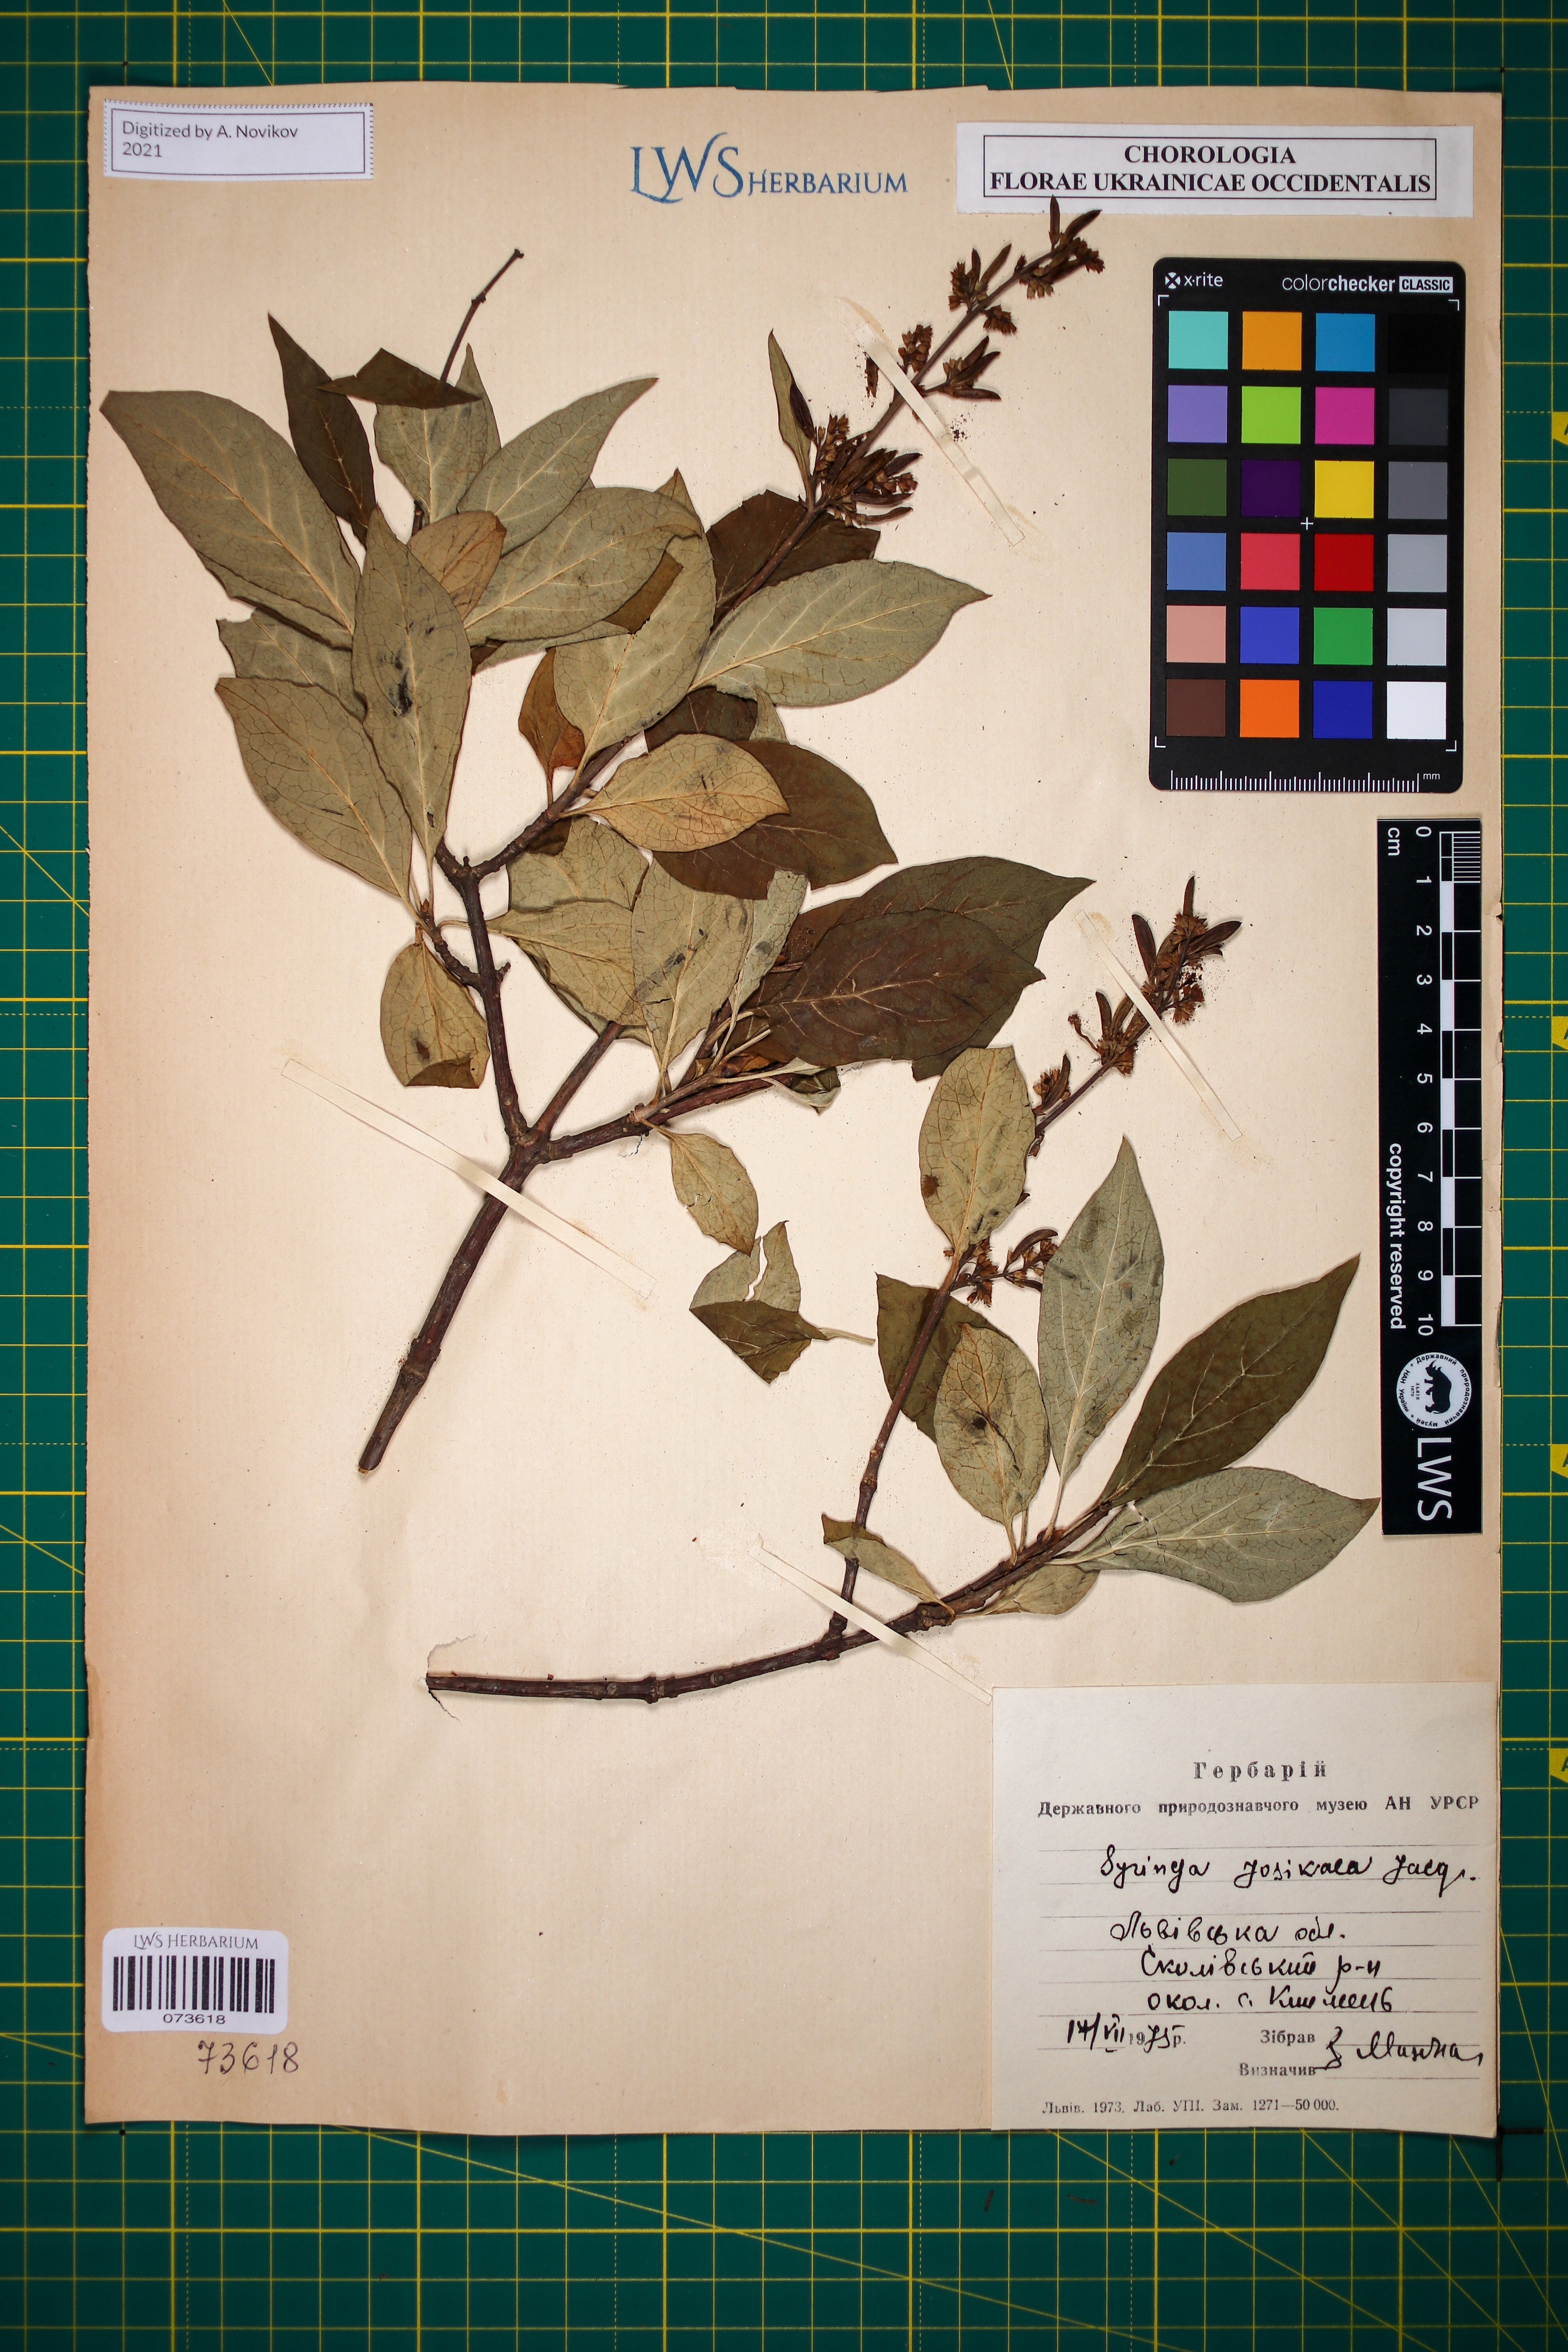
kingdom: Plantae
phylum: Tracheophyta
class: Magnoliopsida
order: Lamiales
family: Oleaceae
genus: Syringa
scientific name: Syringa josikaea
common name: Hungarian lilac
